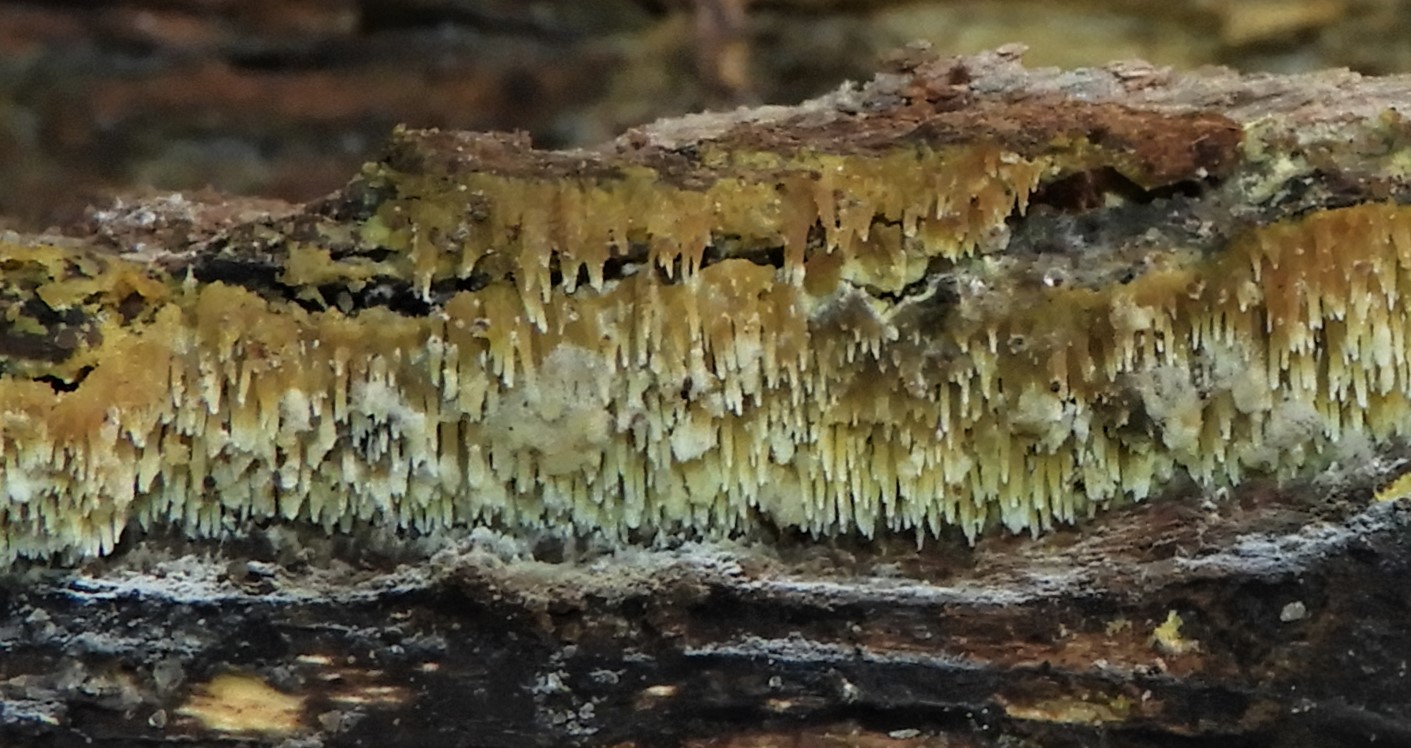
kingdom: Fungi
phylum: Basidiomycota
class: Agaricomycetes
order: Polyporales
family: Meruliaceae
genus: Mycoacia
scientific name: Mycoacia
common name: vokspig
